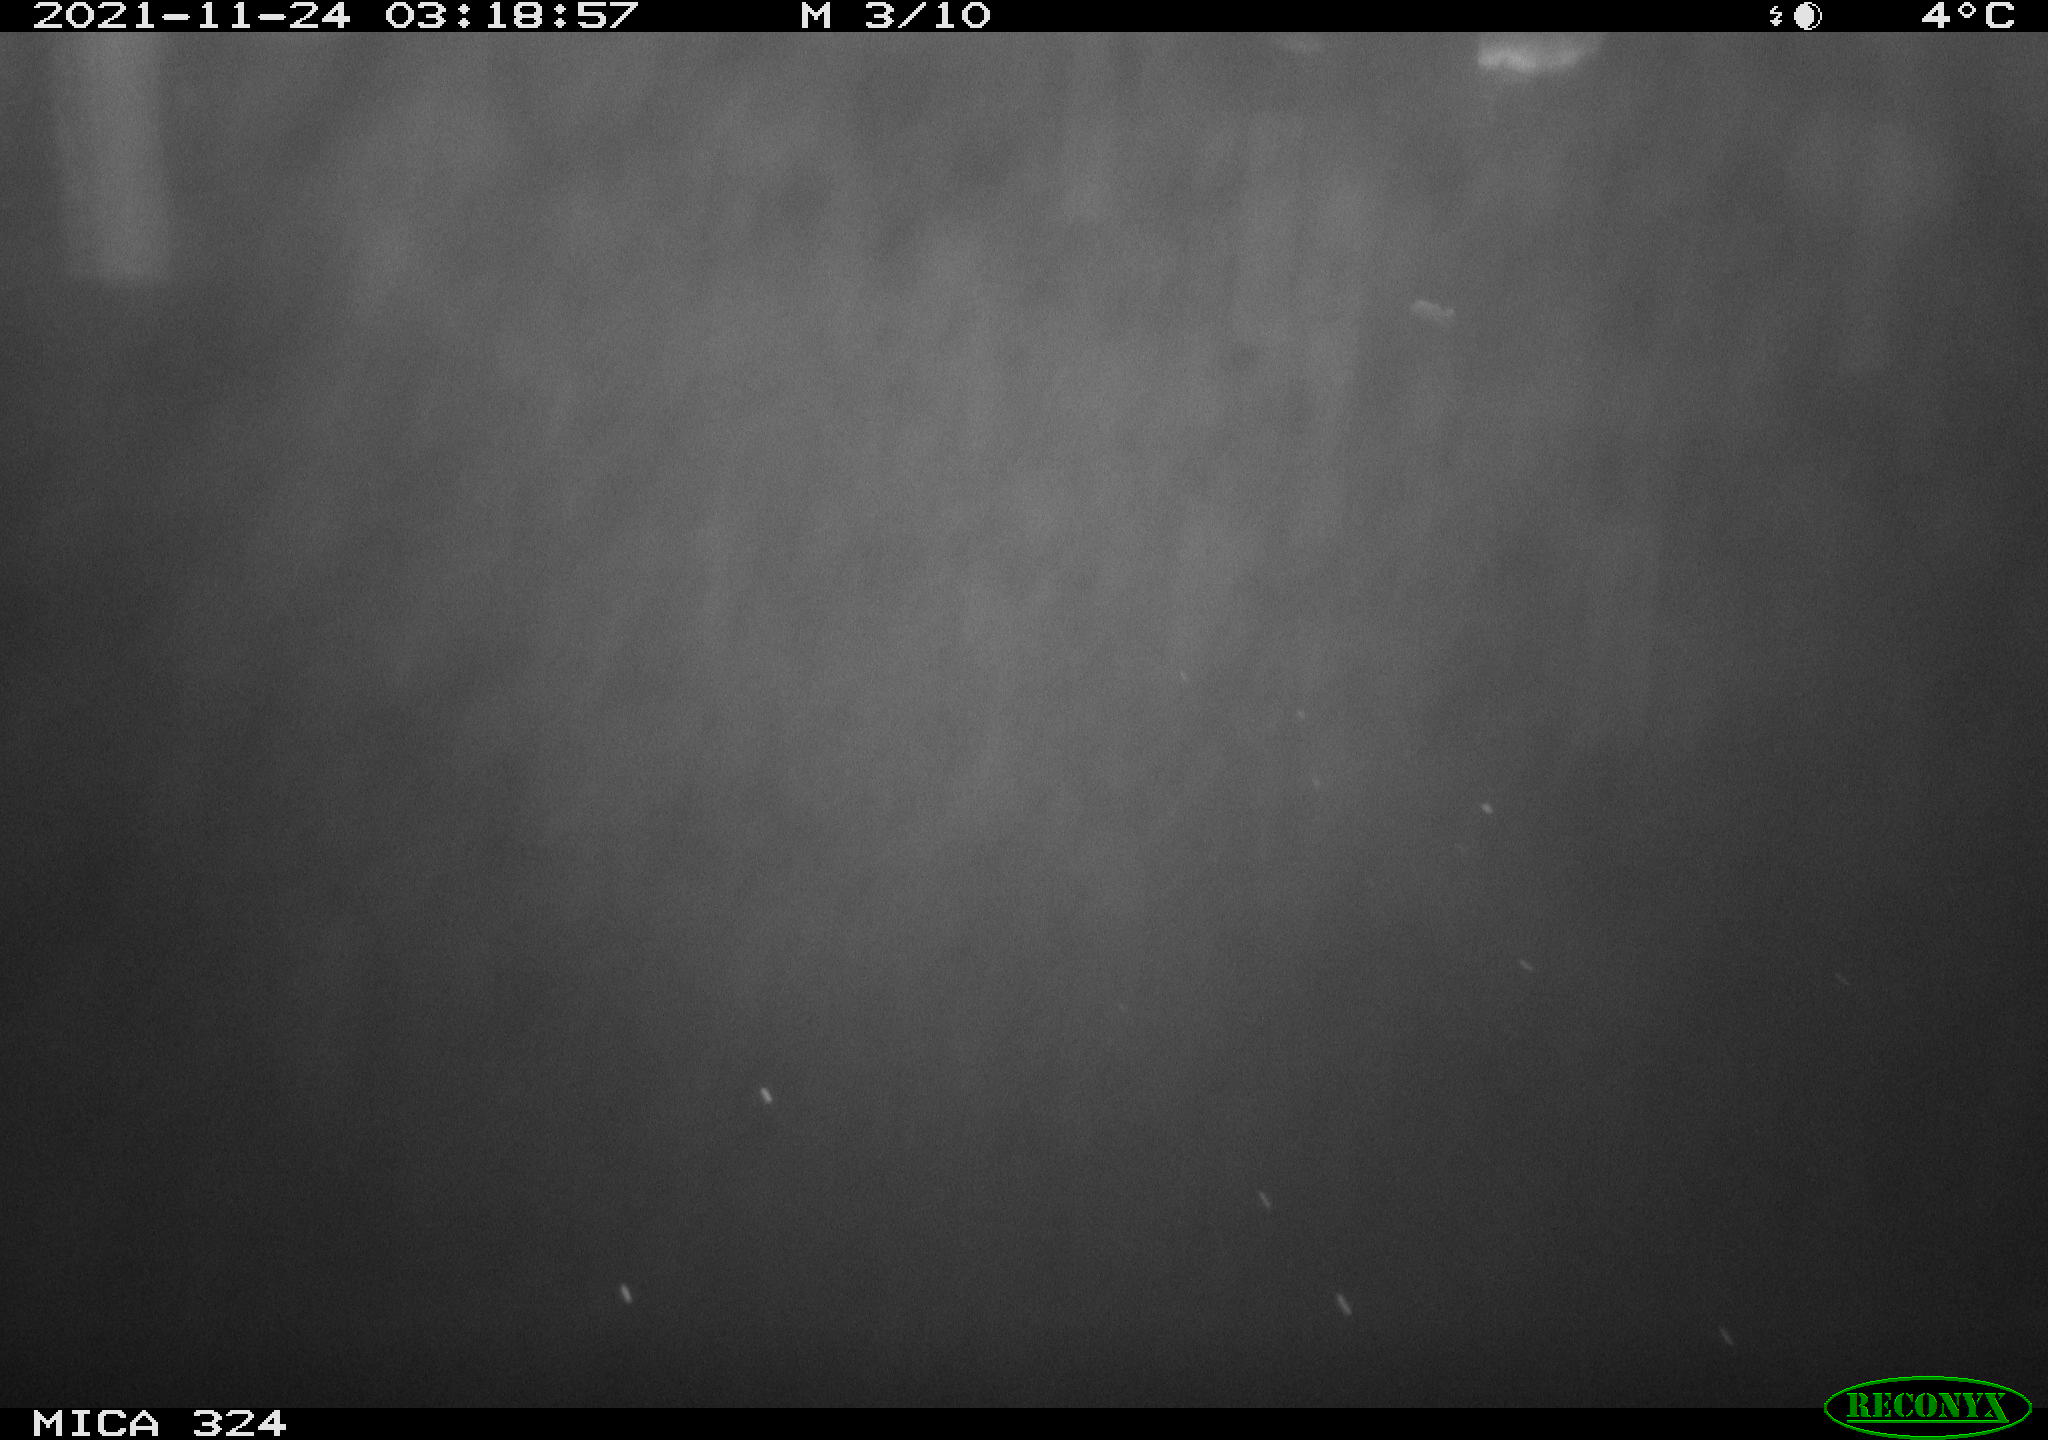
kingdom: Animalia
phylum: Chordata
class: Mammalia
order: Rodentia
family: Cricetidae
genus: Ondatra
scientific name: Ondatra zibethicus
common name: Muskrat
